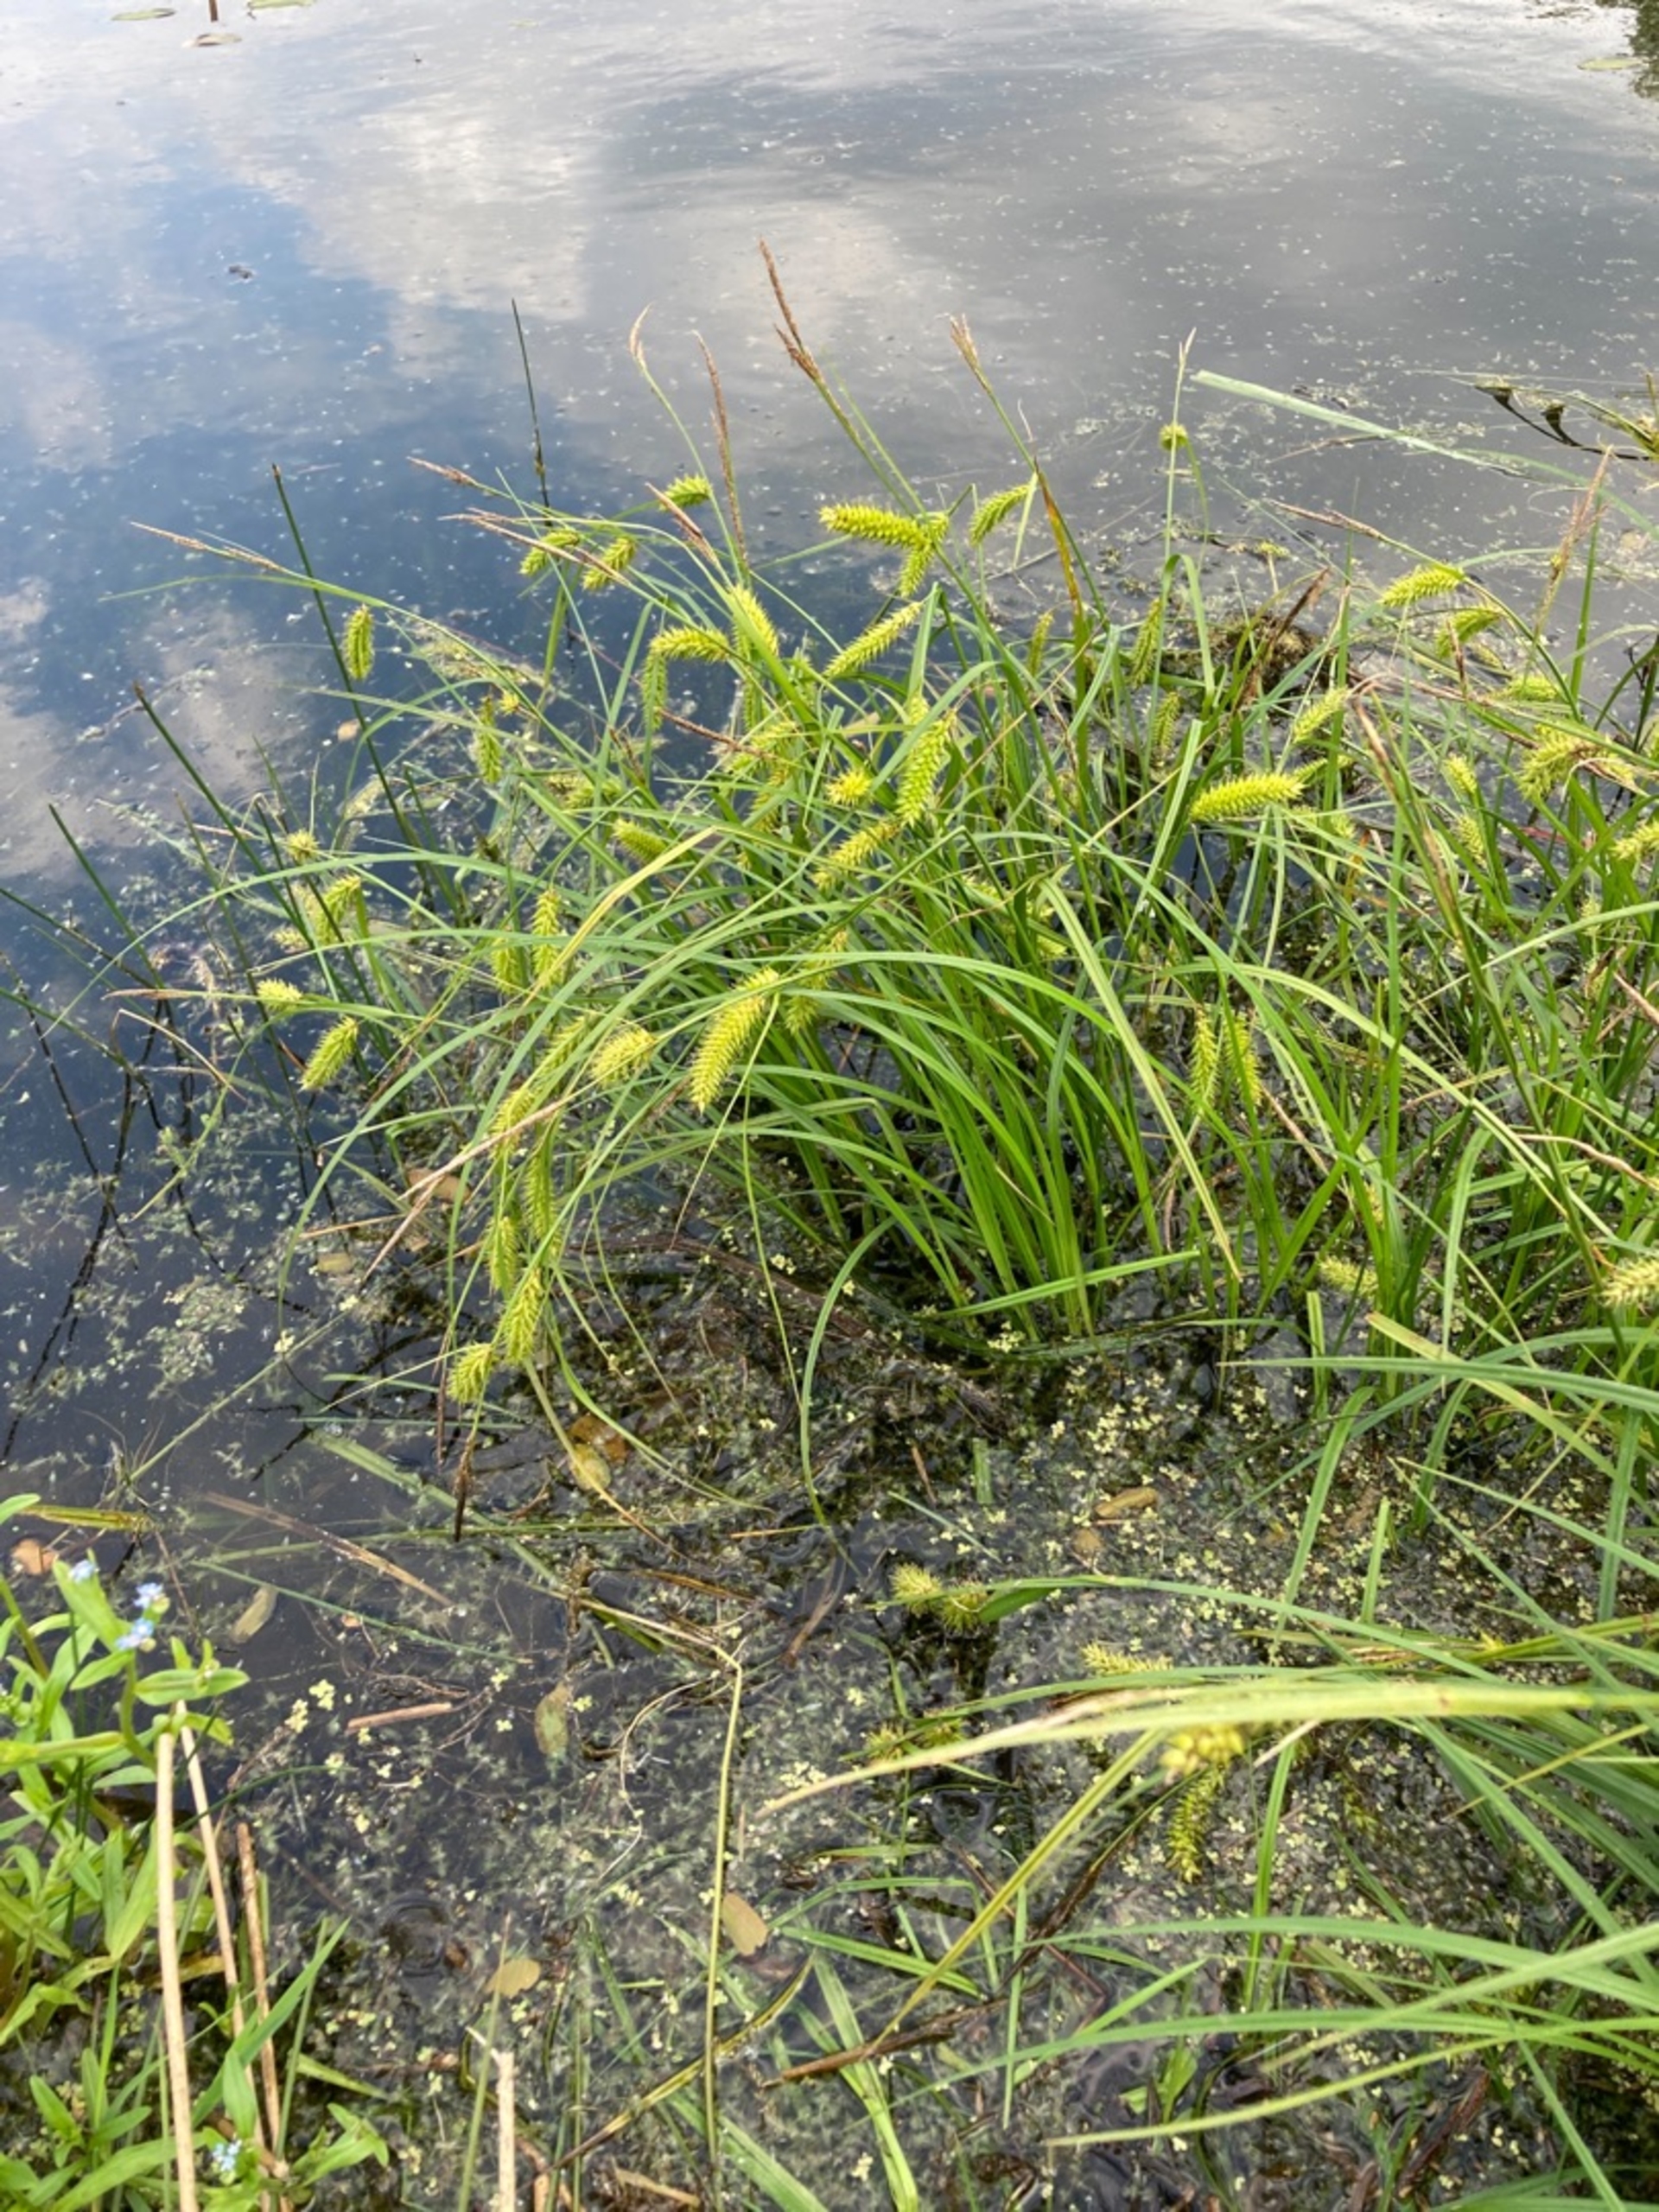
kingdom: Plantae
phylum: Tracheophyta
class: Liliopsida
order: Poales
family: Cyperaceae
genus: Carex
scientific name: Carex vesicaria
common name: Blære-star
